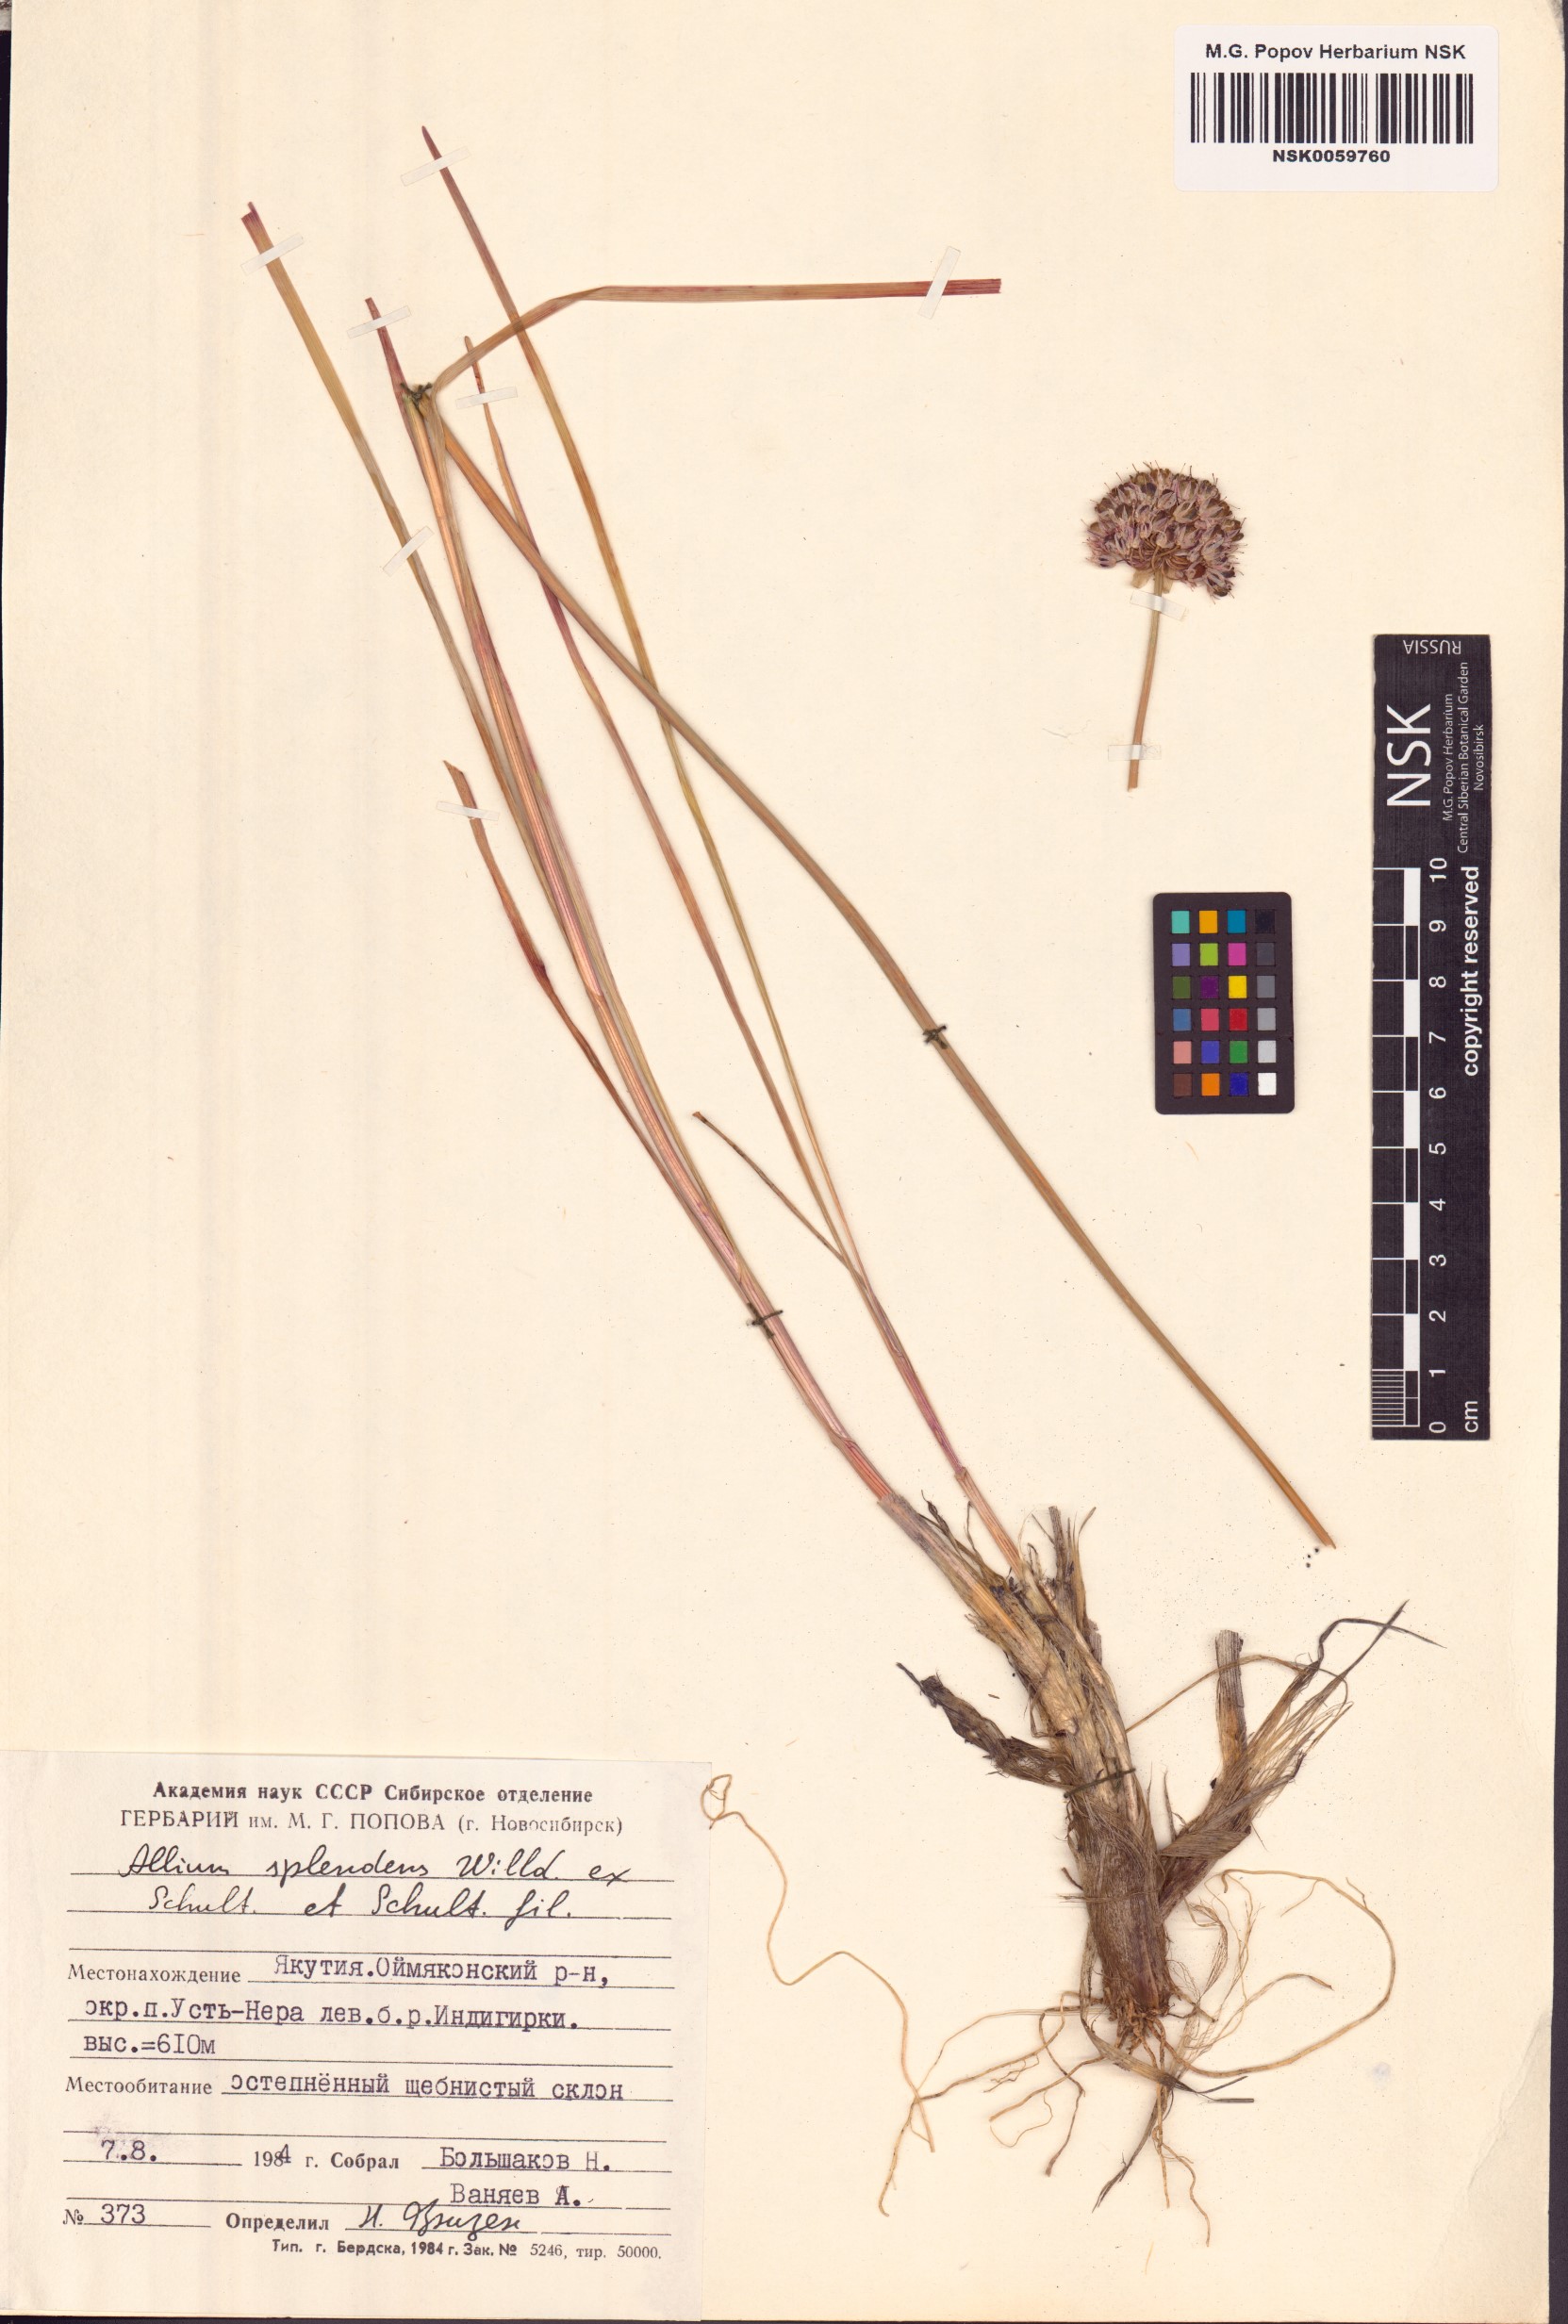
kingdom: Plantae
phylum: Tracheophyta
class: Liliopsida
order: Asparagales
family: Amaryllidaceae
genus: Allium
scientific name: Allium splendens
